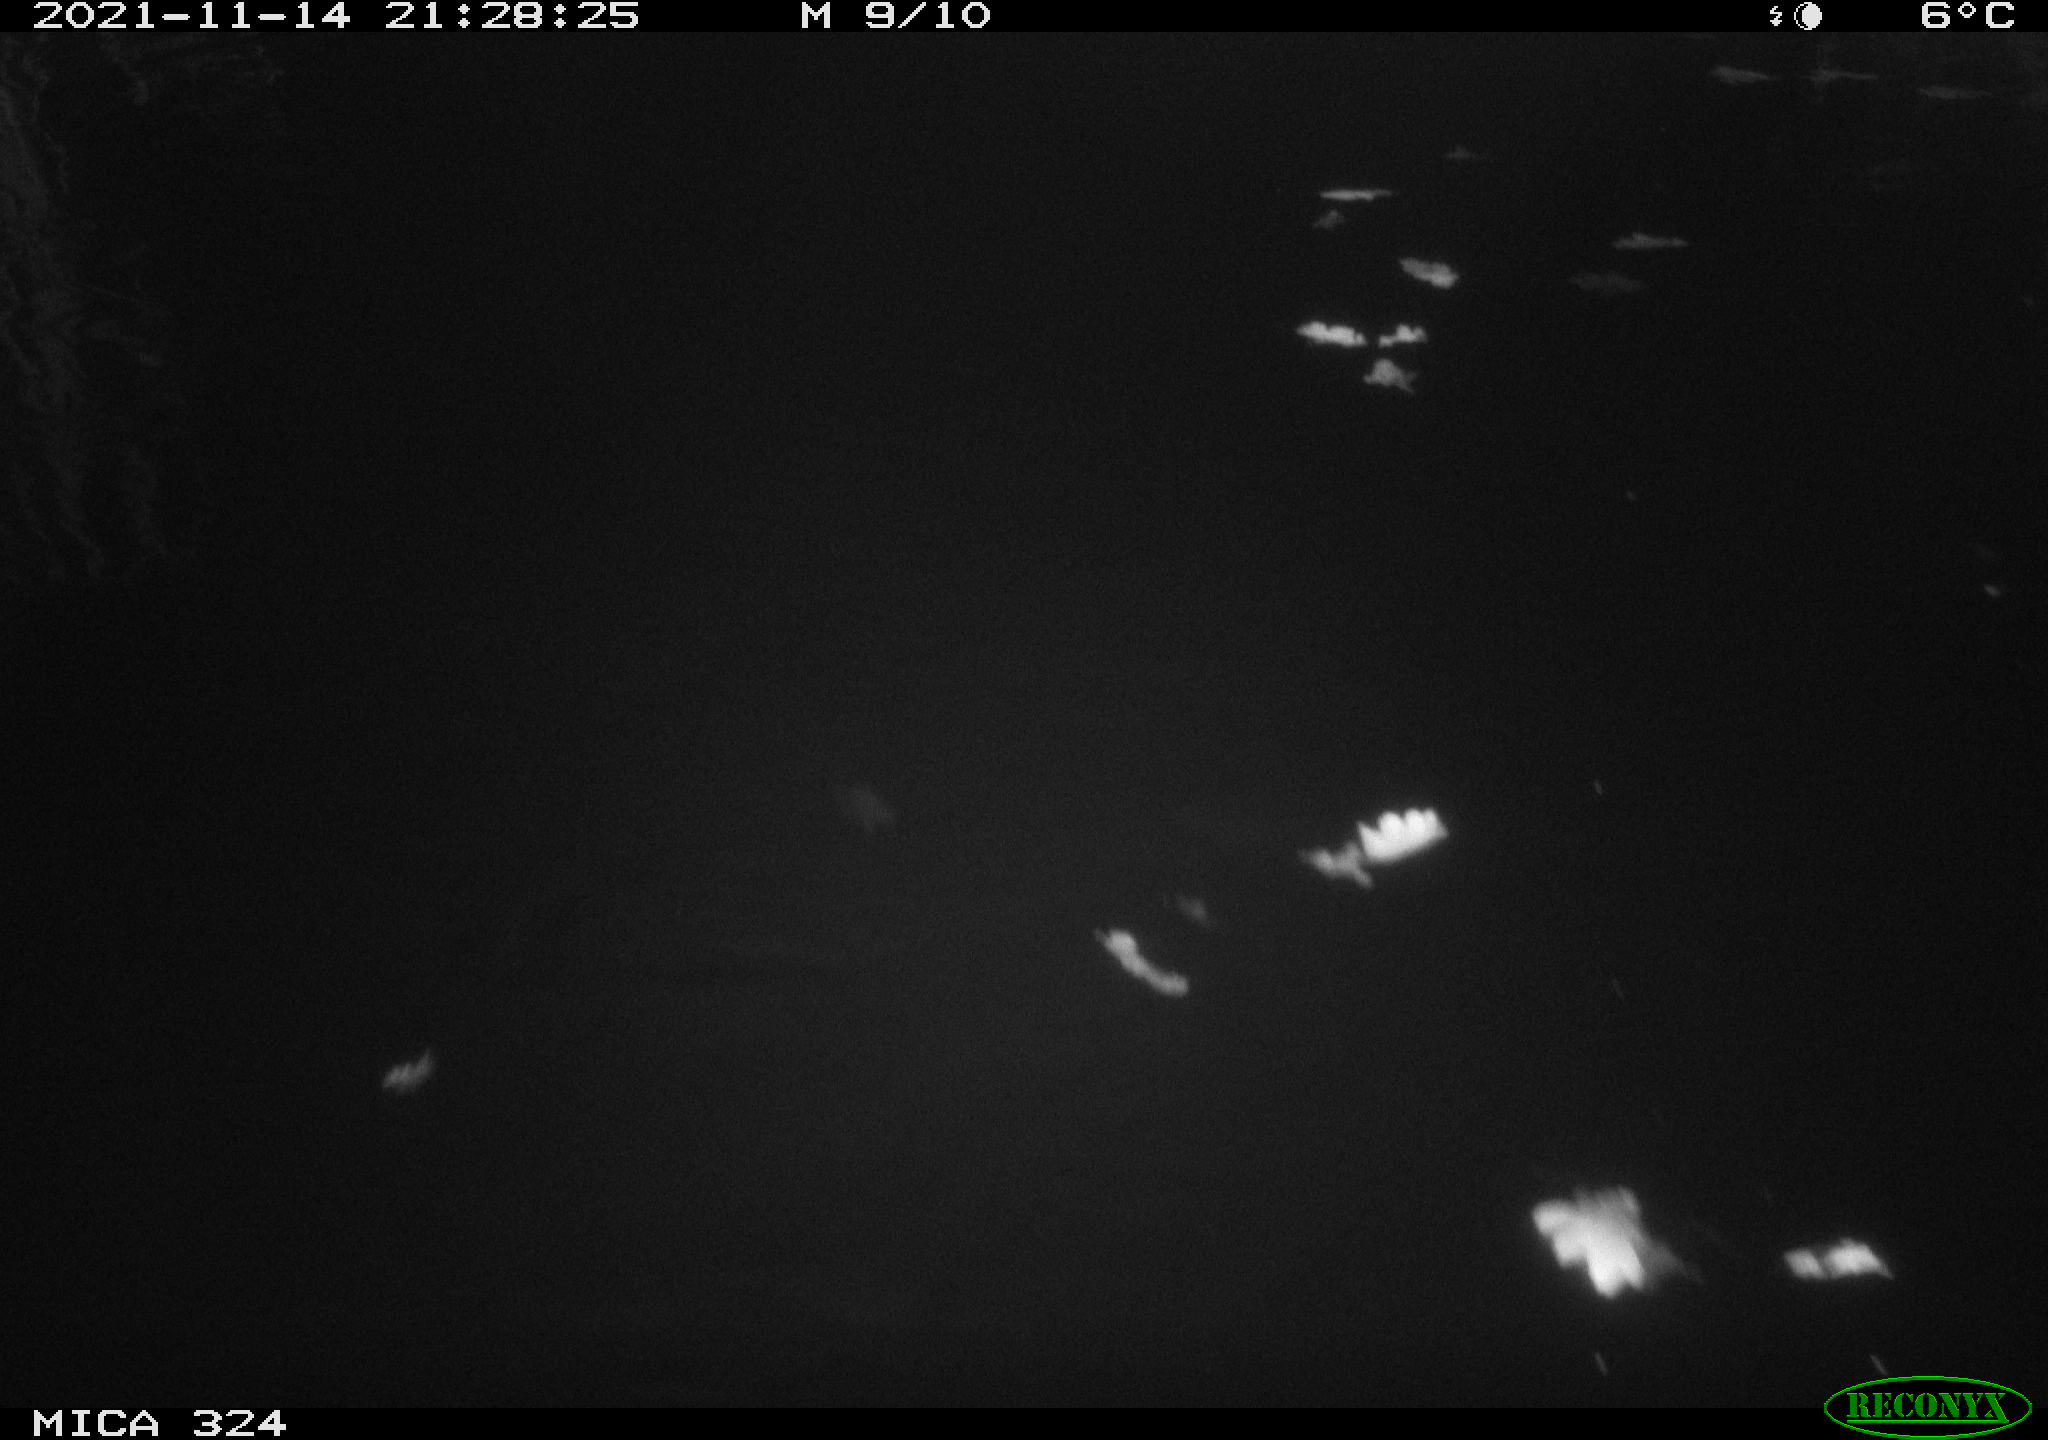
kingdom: Animalia
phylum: Chordata
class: Mammalia
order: Rodentia
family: Cricetidae
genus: Ondatra
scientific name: Ondatra zibethicus
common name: Muskrat
